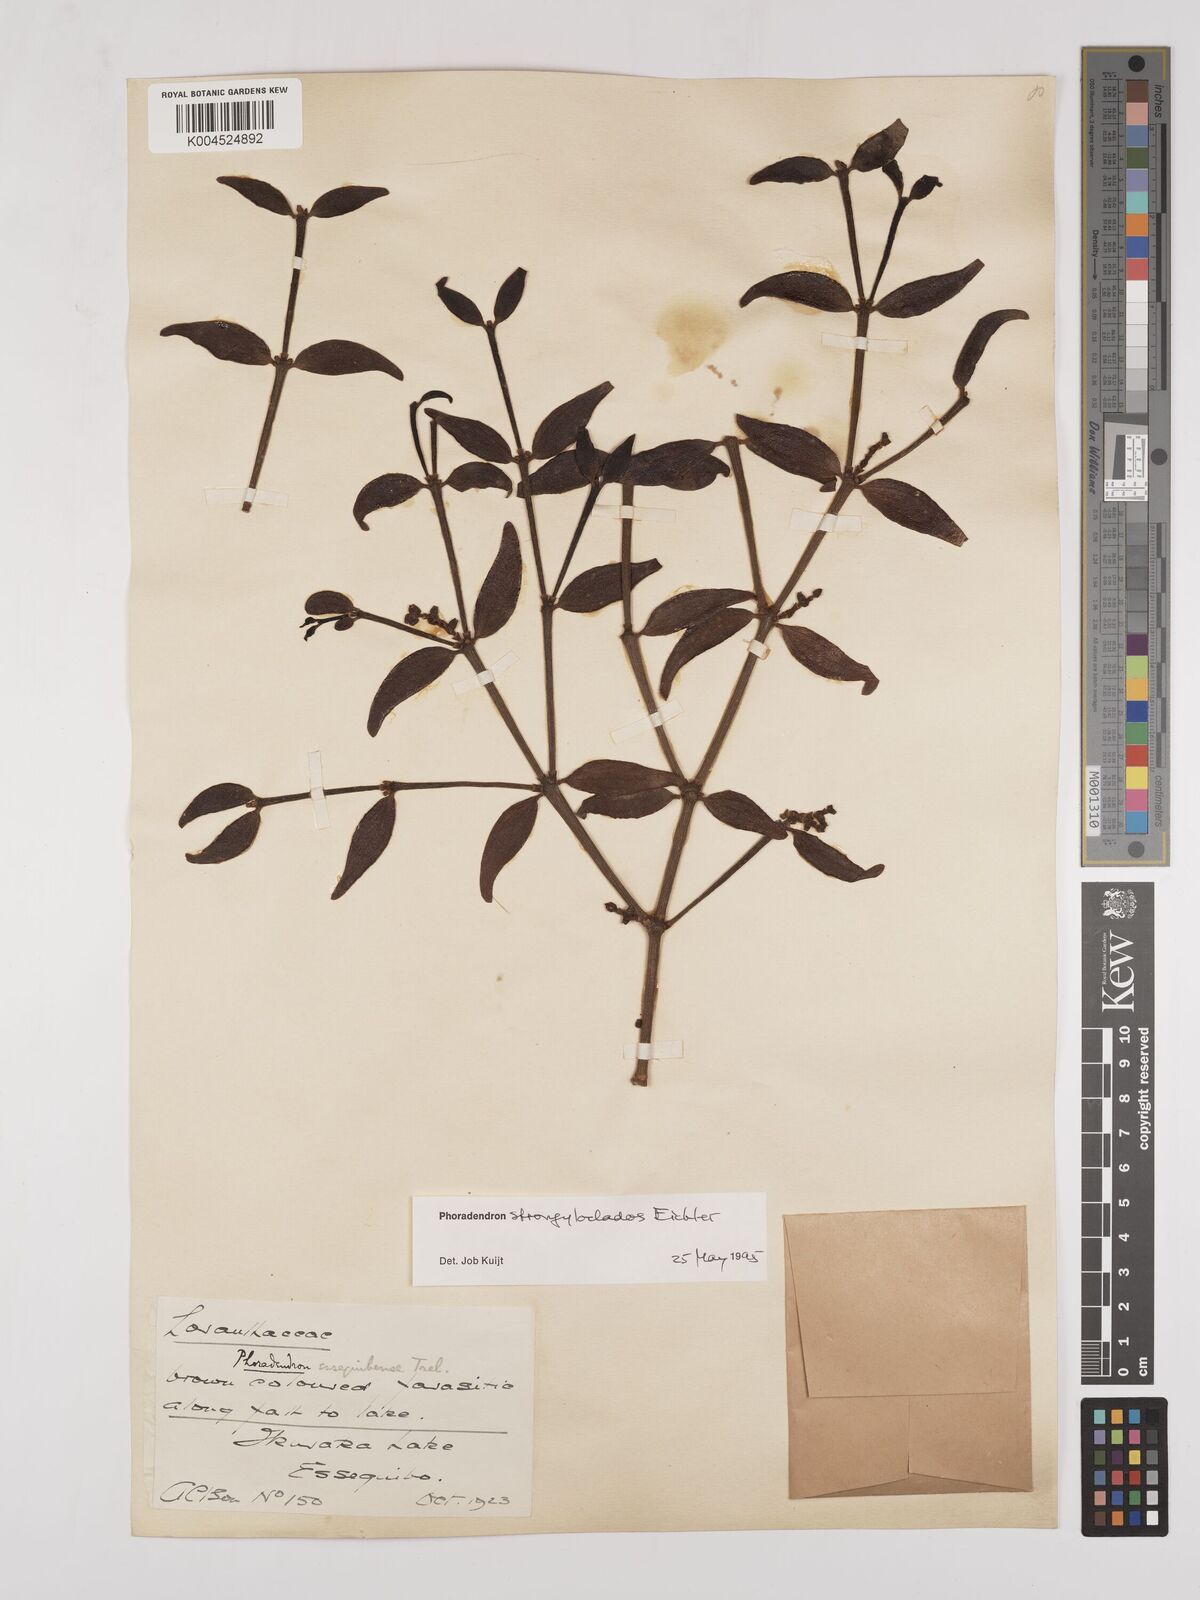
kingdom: Plantae
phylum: Tracheophyta
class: Magnoliopsida
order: Santalales
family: Viscaceae
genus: Phoradendron
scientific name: Phoradendron strongyloclados
